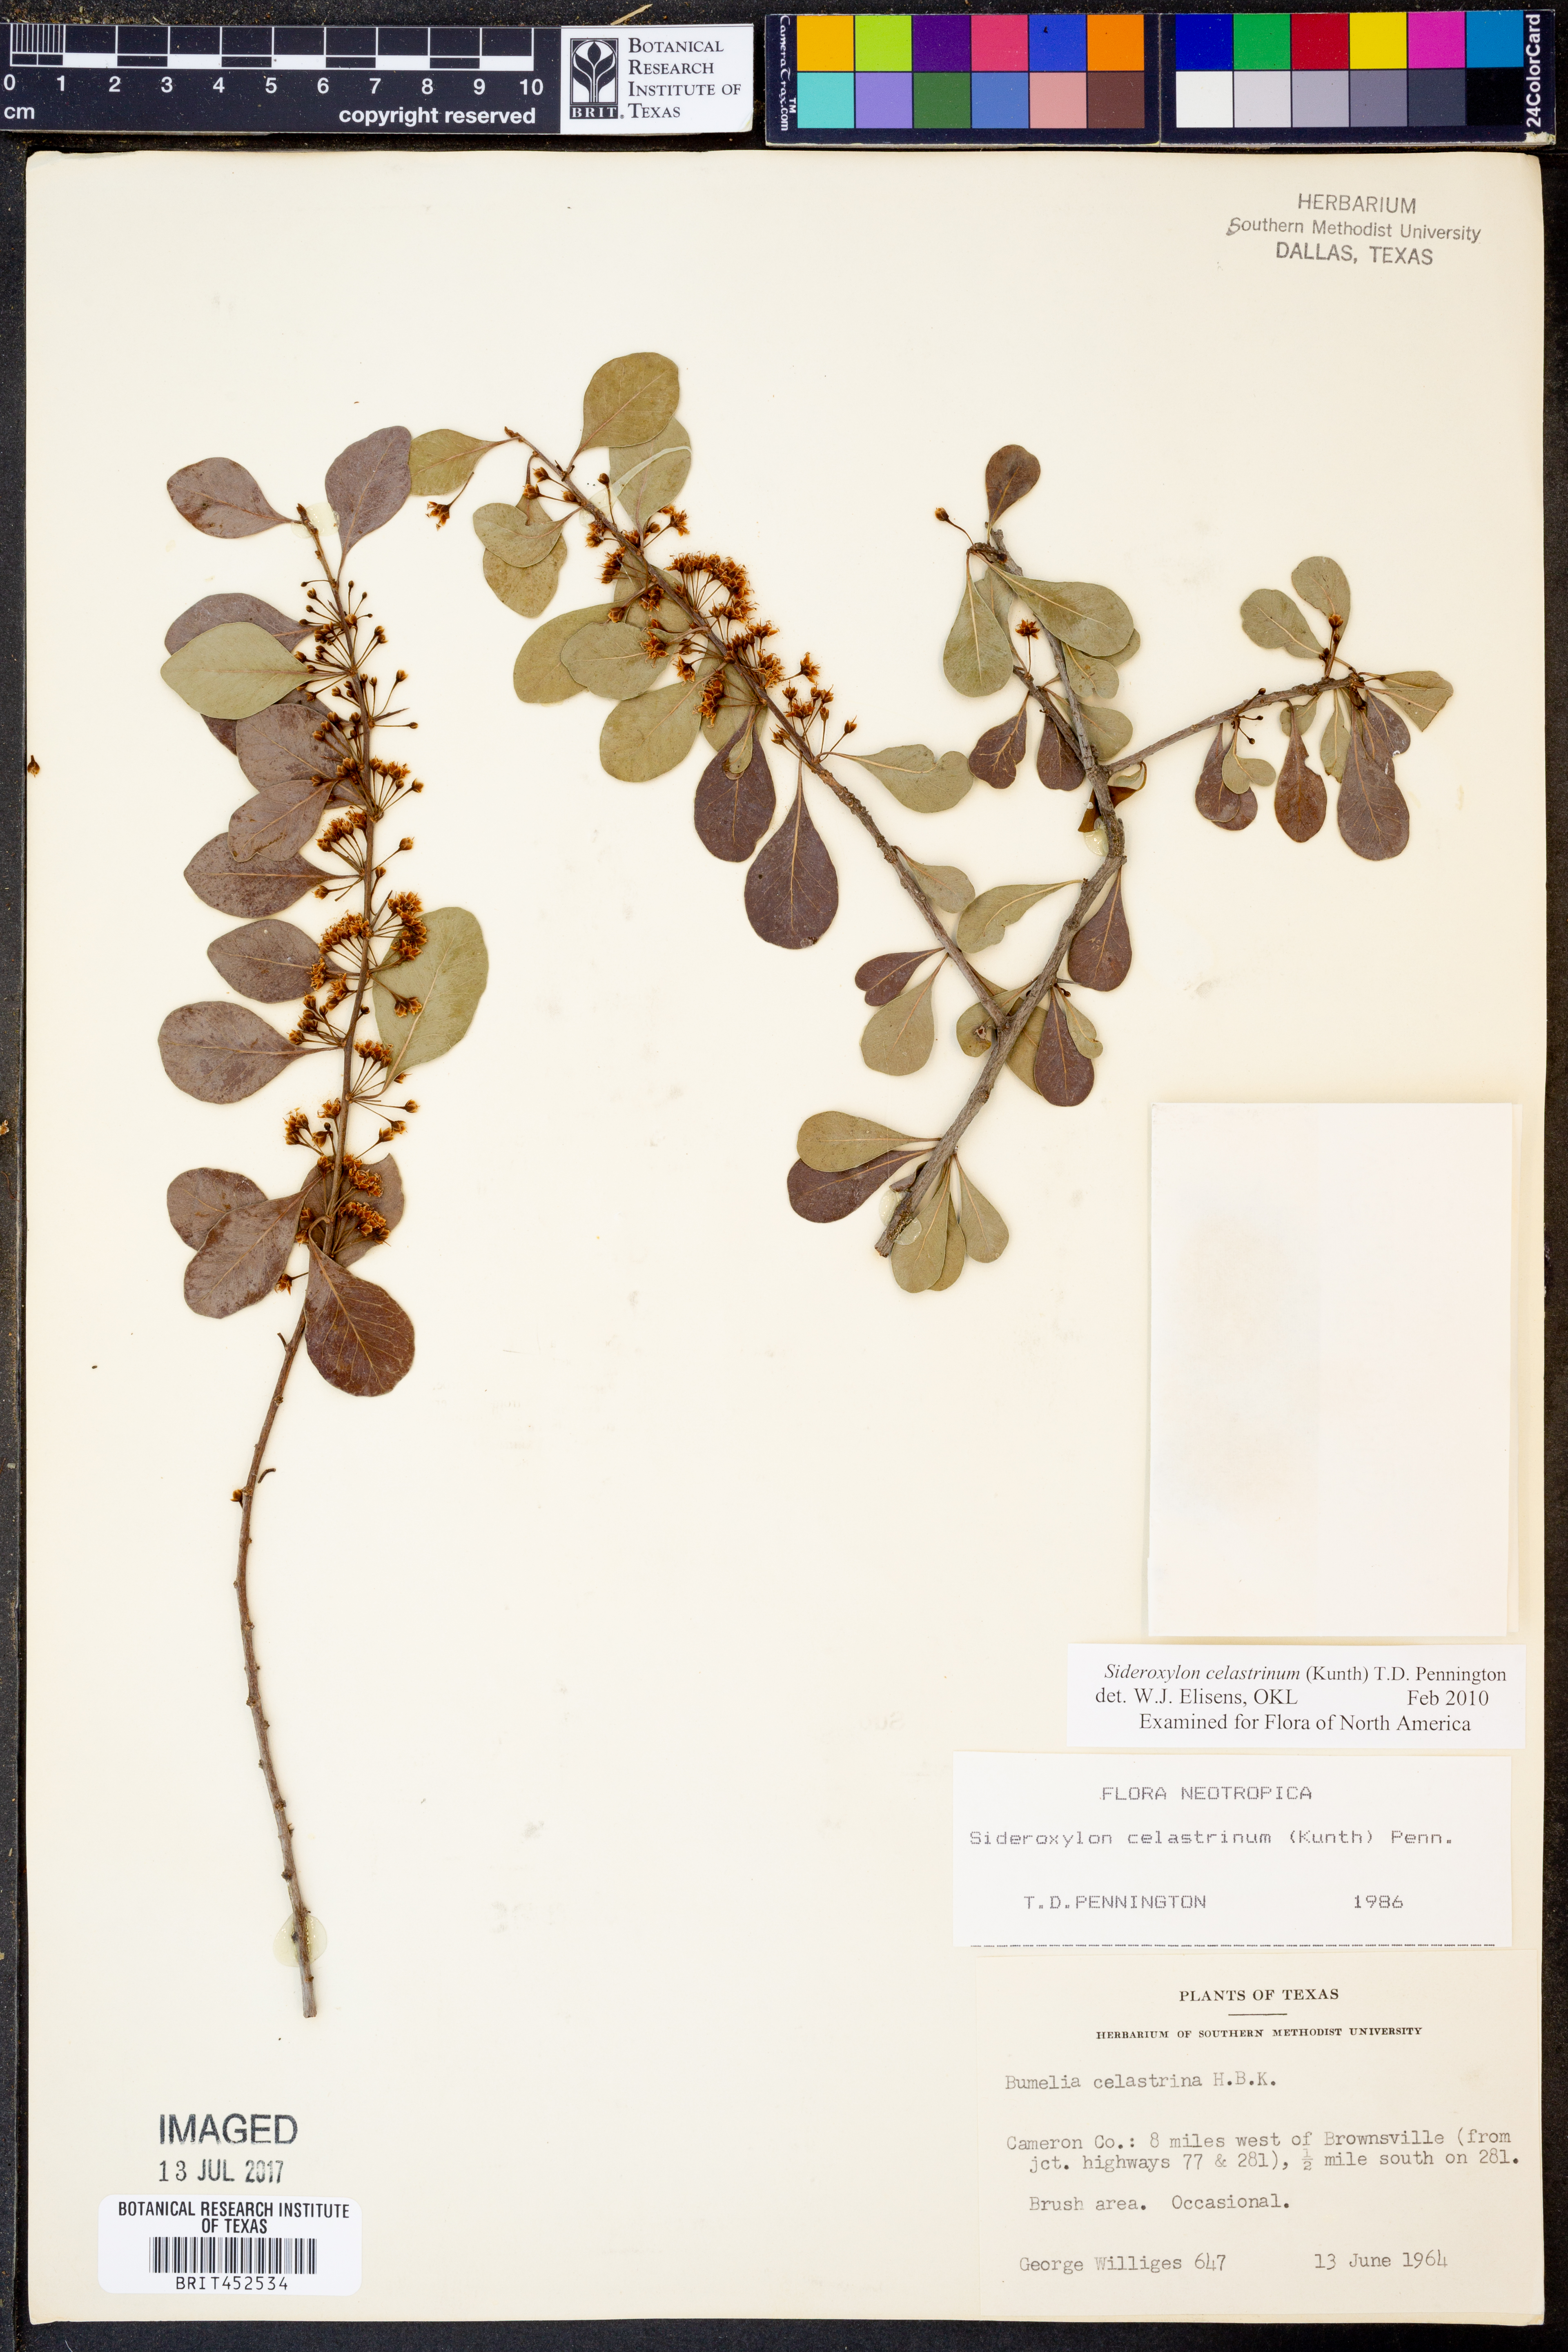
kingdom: Plantae
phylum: Tracheophyta
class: Magnoliopsida
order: Ericales
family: Sapotaceae
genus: Sideroxylon
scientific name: Sideroxylon celastrinum
